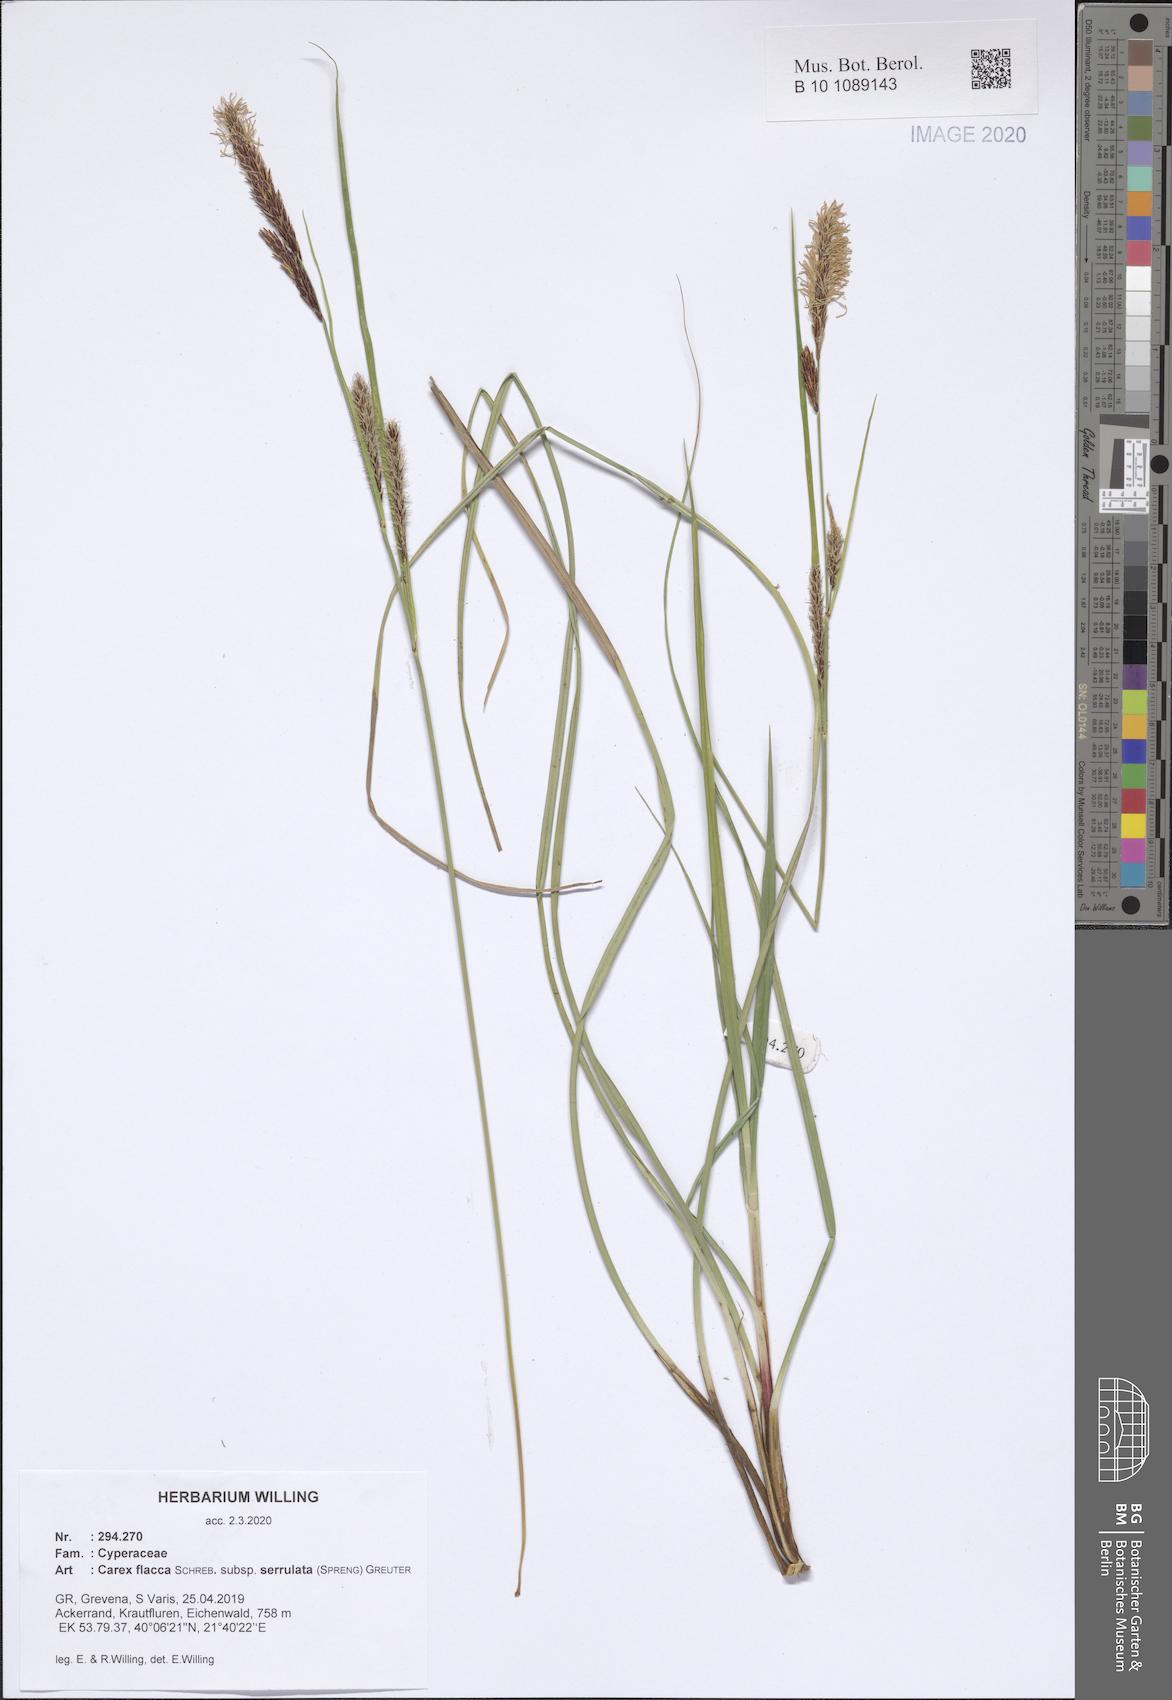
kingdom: Plantae
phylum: Tracheophyta
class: Liliopsida
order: Poales
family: Cyperaceae
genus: Carex
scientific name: Carex flacca
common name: Glaucous sedge
